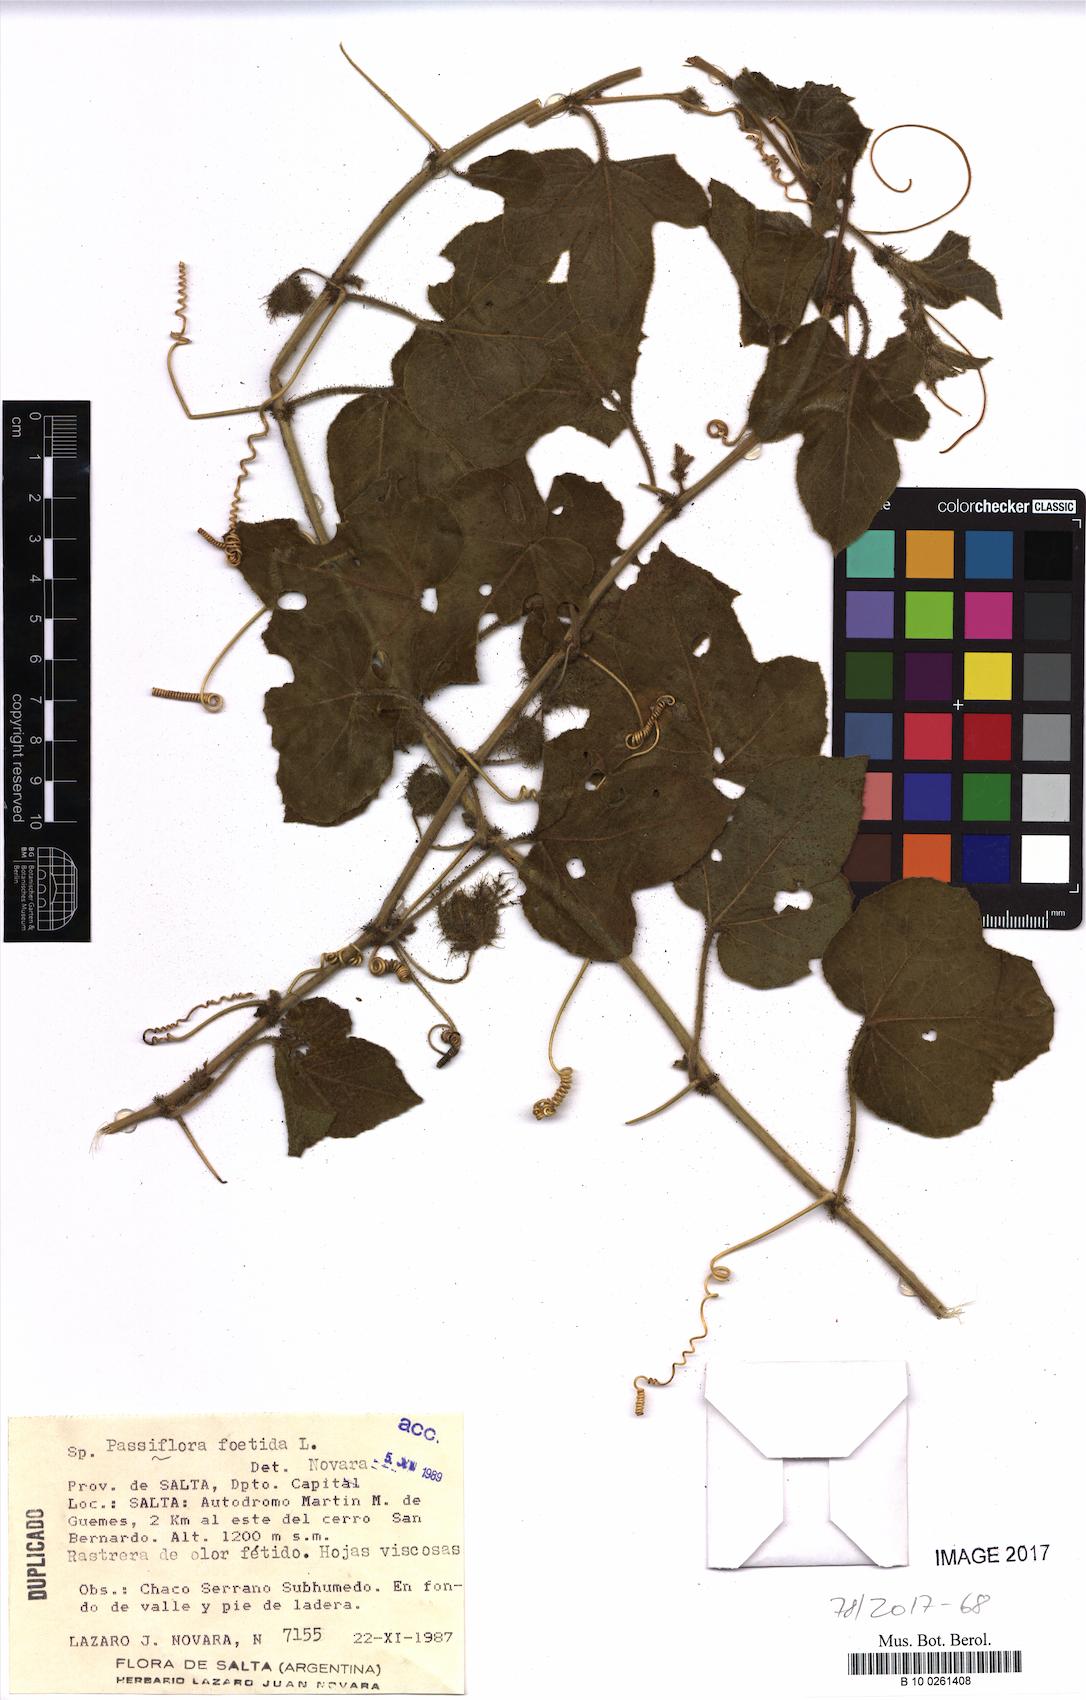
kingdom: Plantae
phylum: Tracheophyta
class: Magnoliopsida
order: Malpighiales
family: Passifloraceae
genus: Passiflora
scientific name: Passiflora foetida
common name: Fetid passionflower
